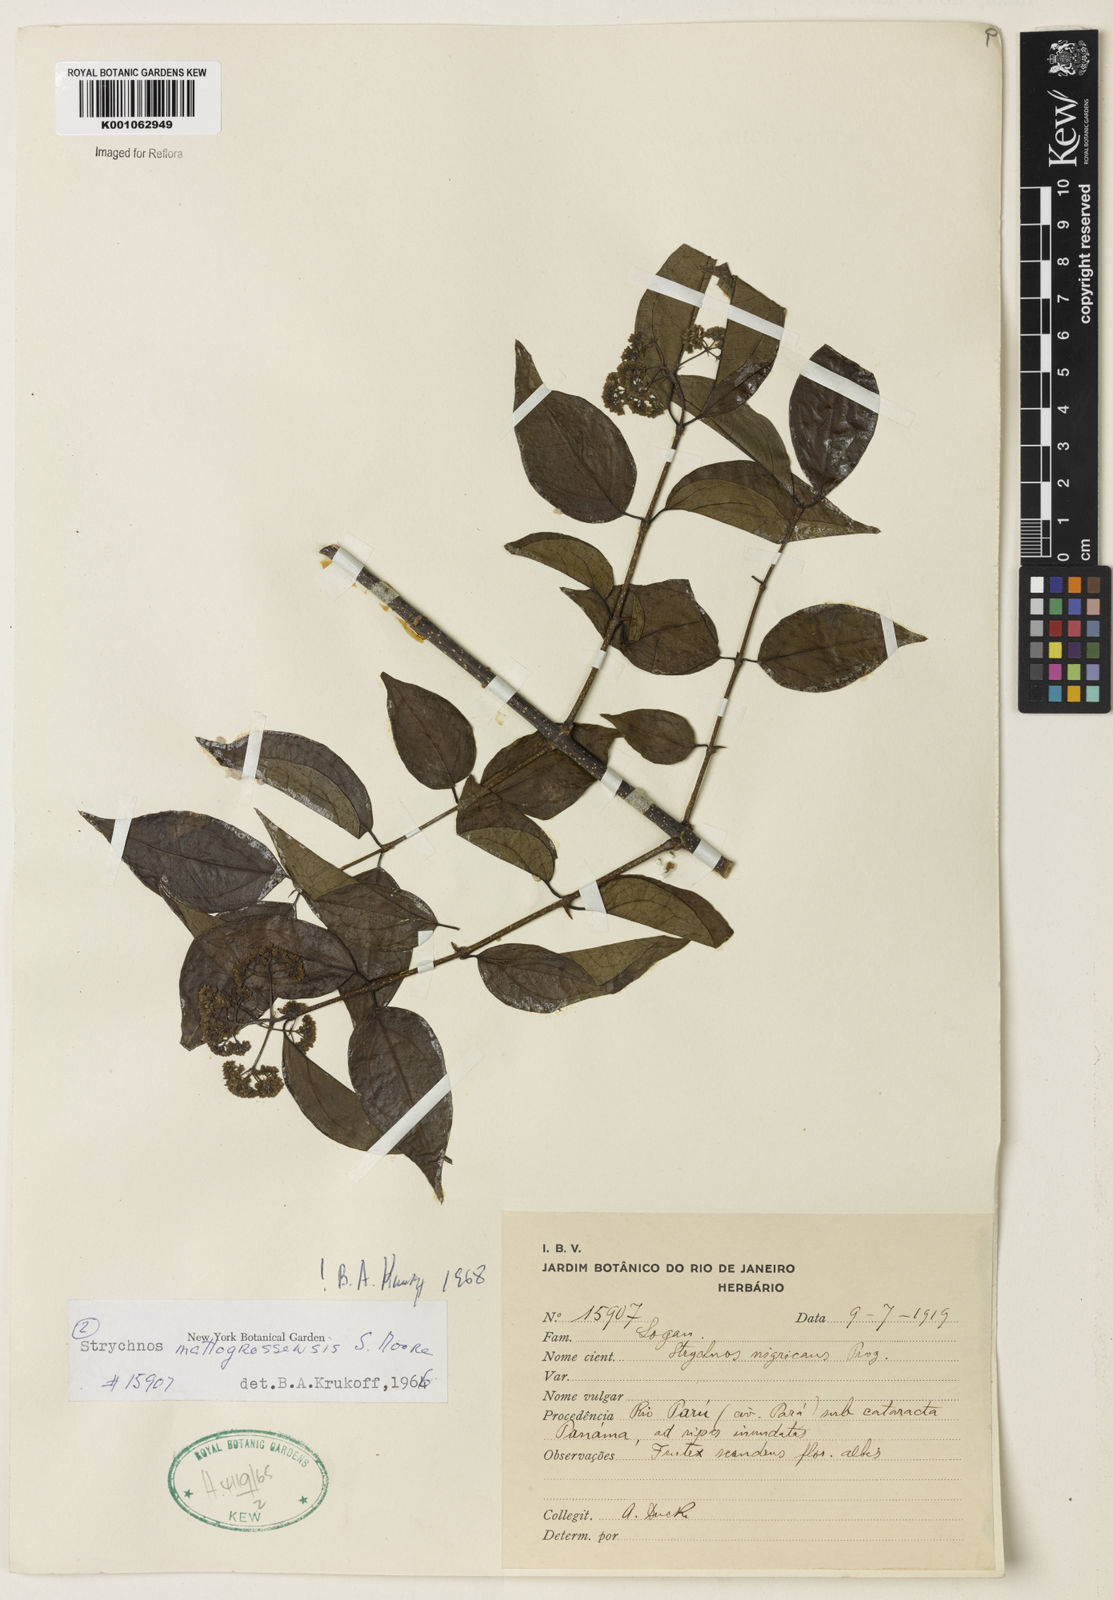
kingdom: Plantae
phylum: Tracheophyta
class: Magnoliopsida
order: Gentianales
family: Loganiaceae
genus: Strychnos
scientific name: Strychnos mattogrossensis
